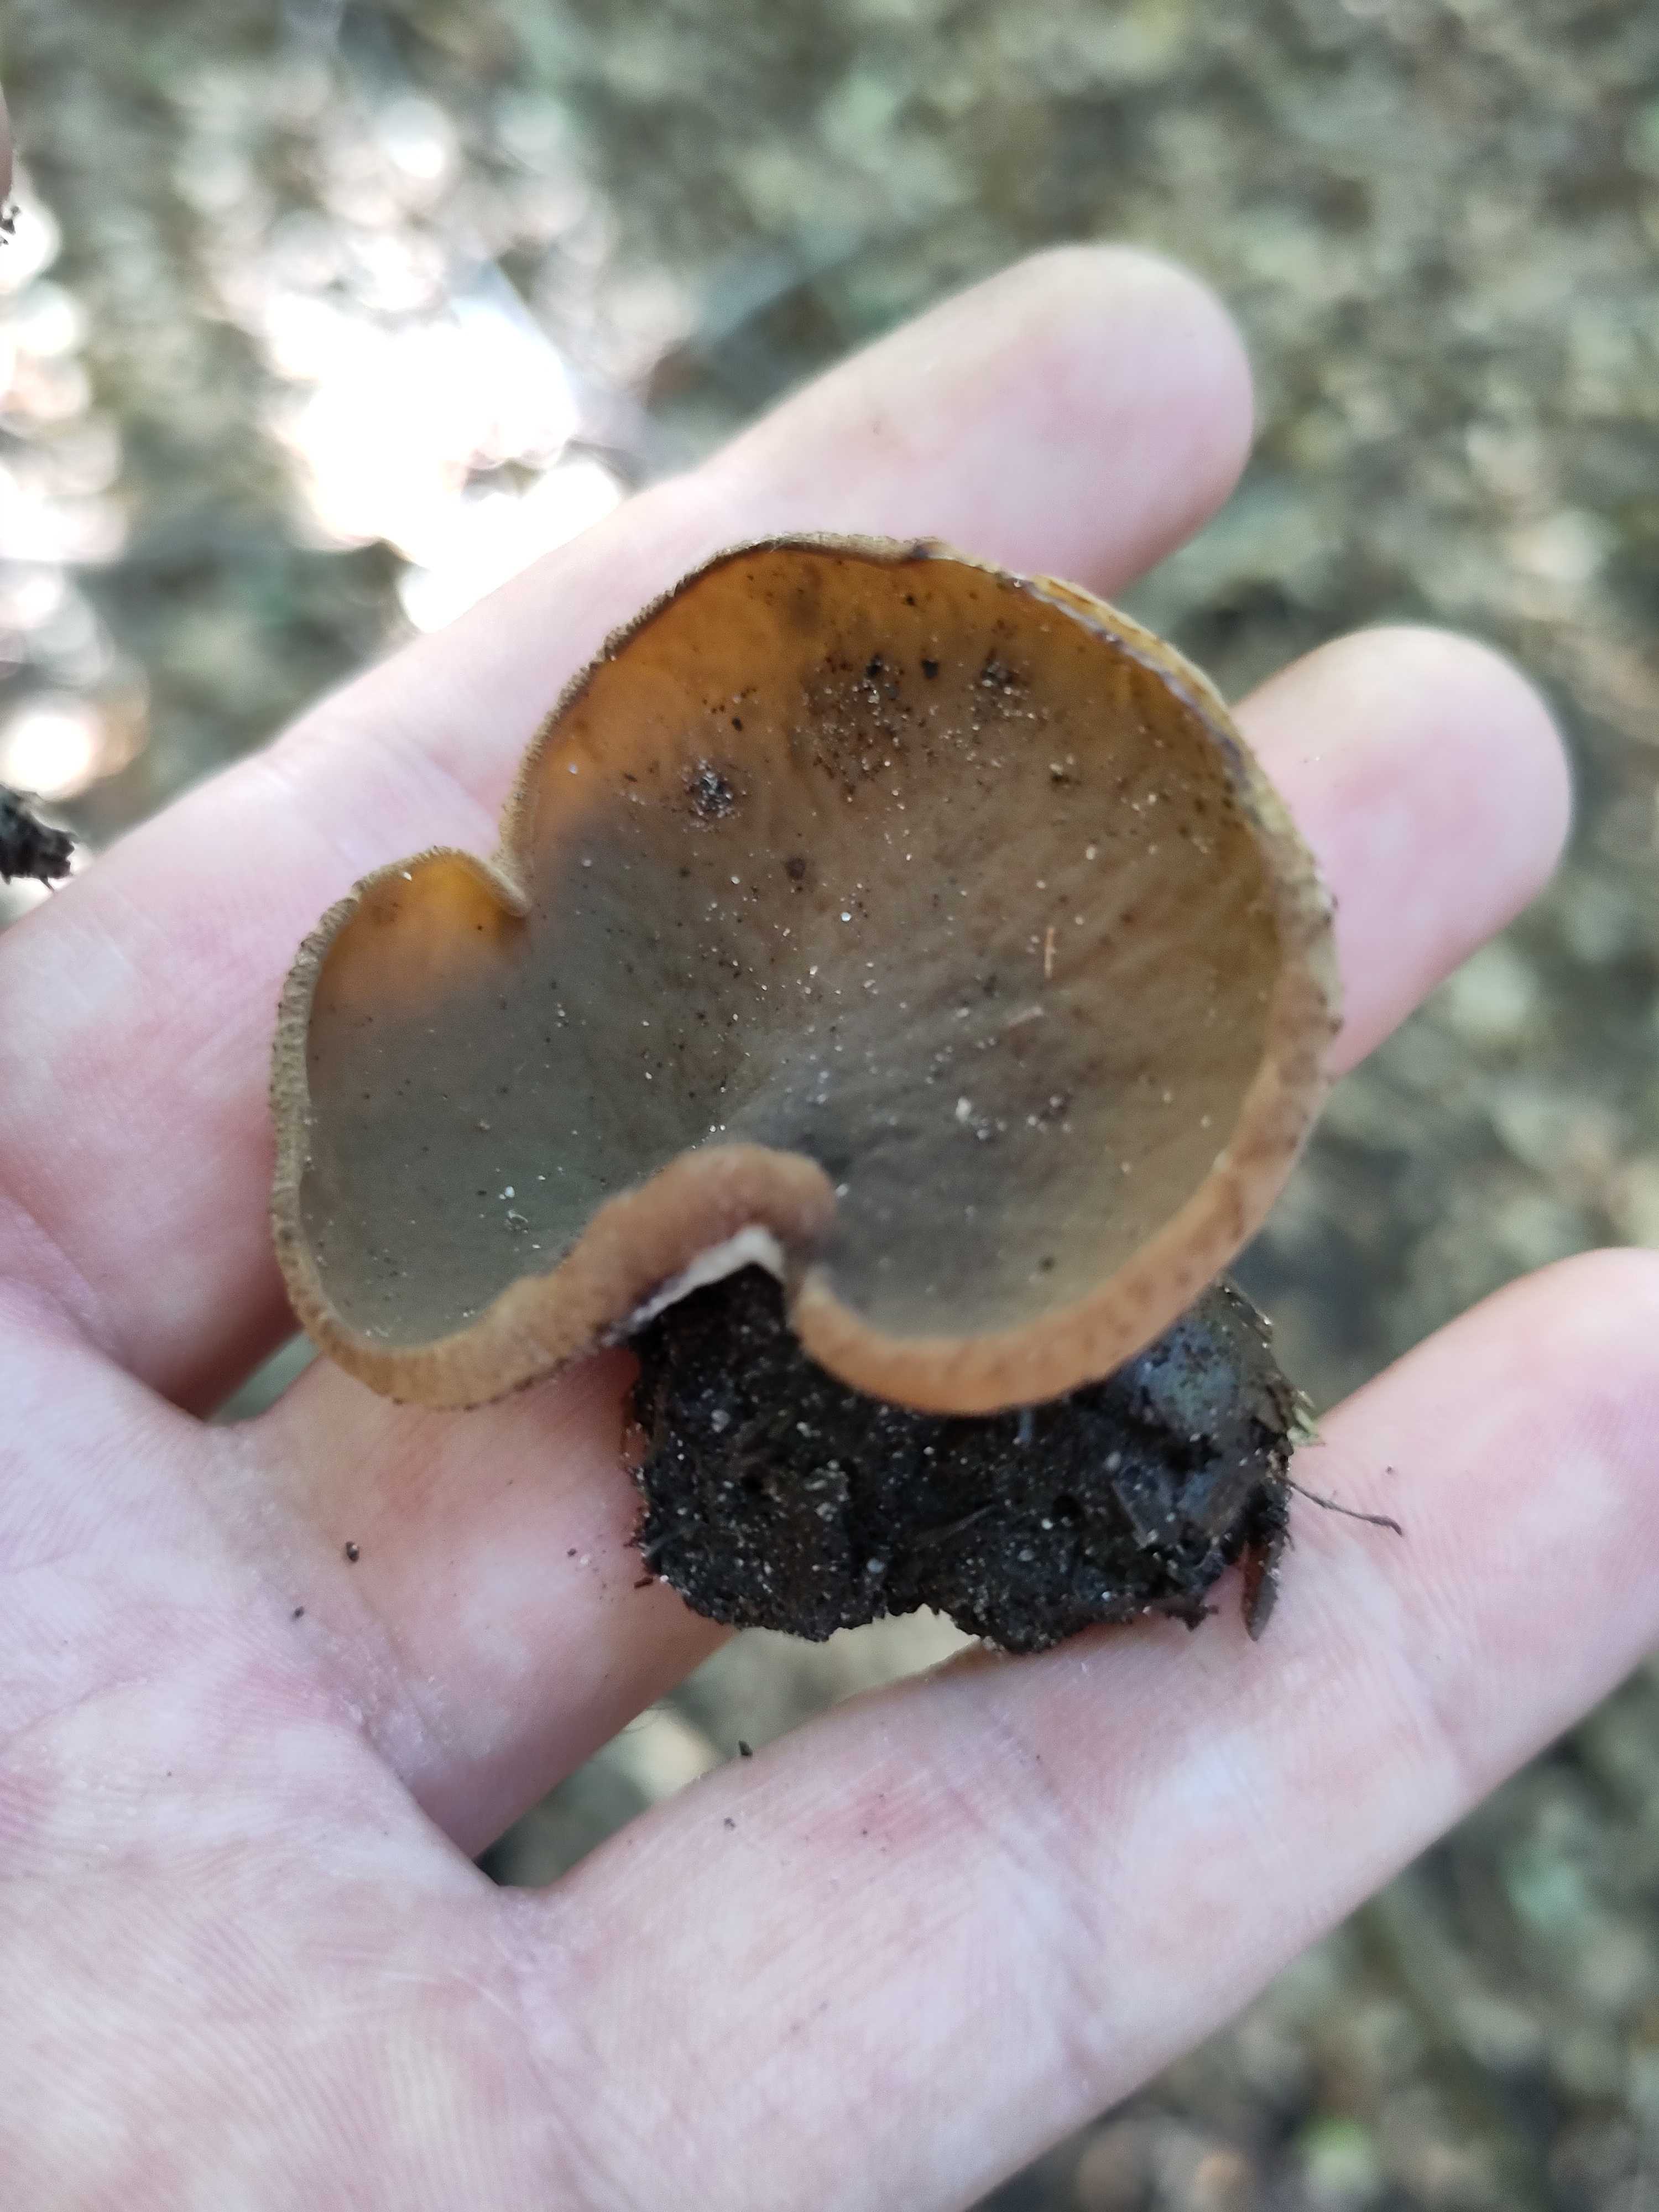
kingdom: Fungi
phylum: Ascomycota
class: Pezizomycetes
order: Pezizales
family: Pezizaceae
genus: Legaliana
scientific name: Legaliana limnaea
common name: mose-bægersvamp
